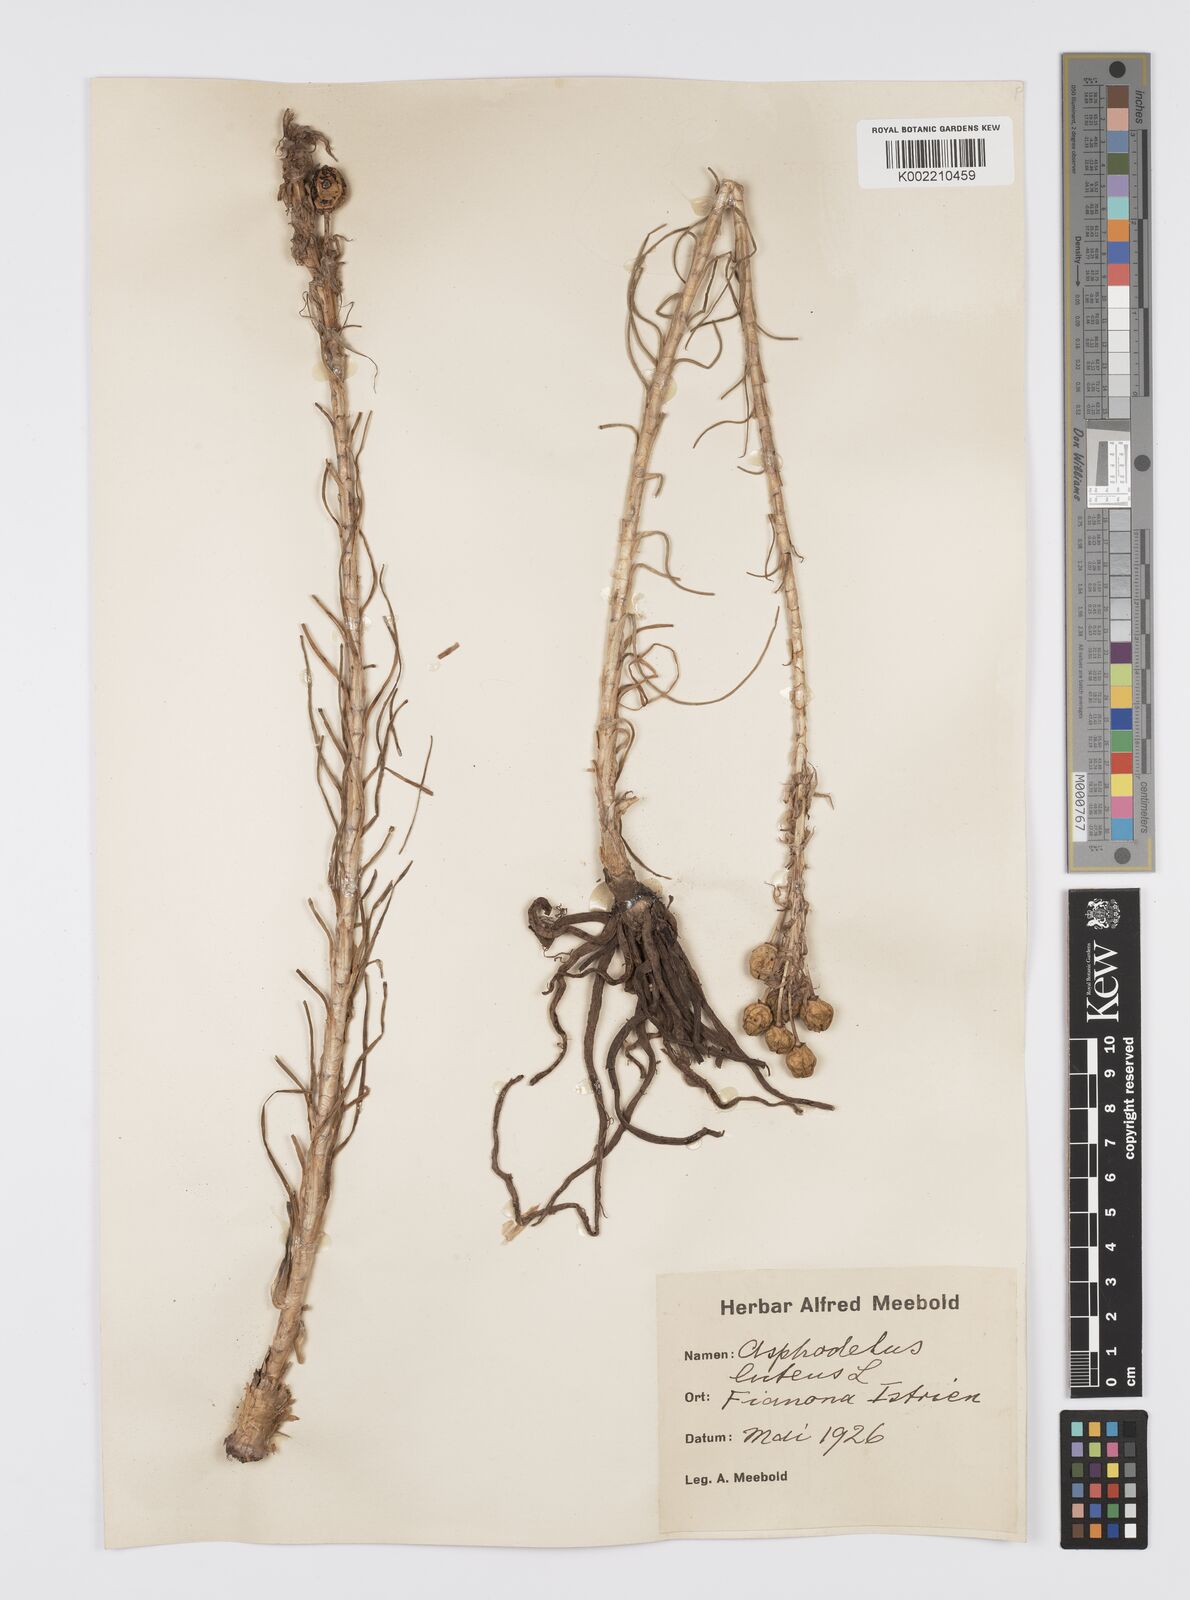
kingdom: Plantae
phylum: Tracheophyta
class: Liliopsida
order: Asparagales
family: Asphodelaceae
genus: Asphodeline
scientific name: Asphodeline lutea
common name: Yellow asphodel
